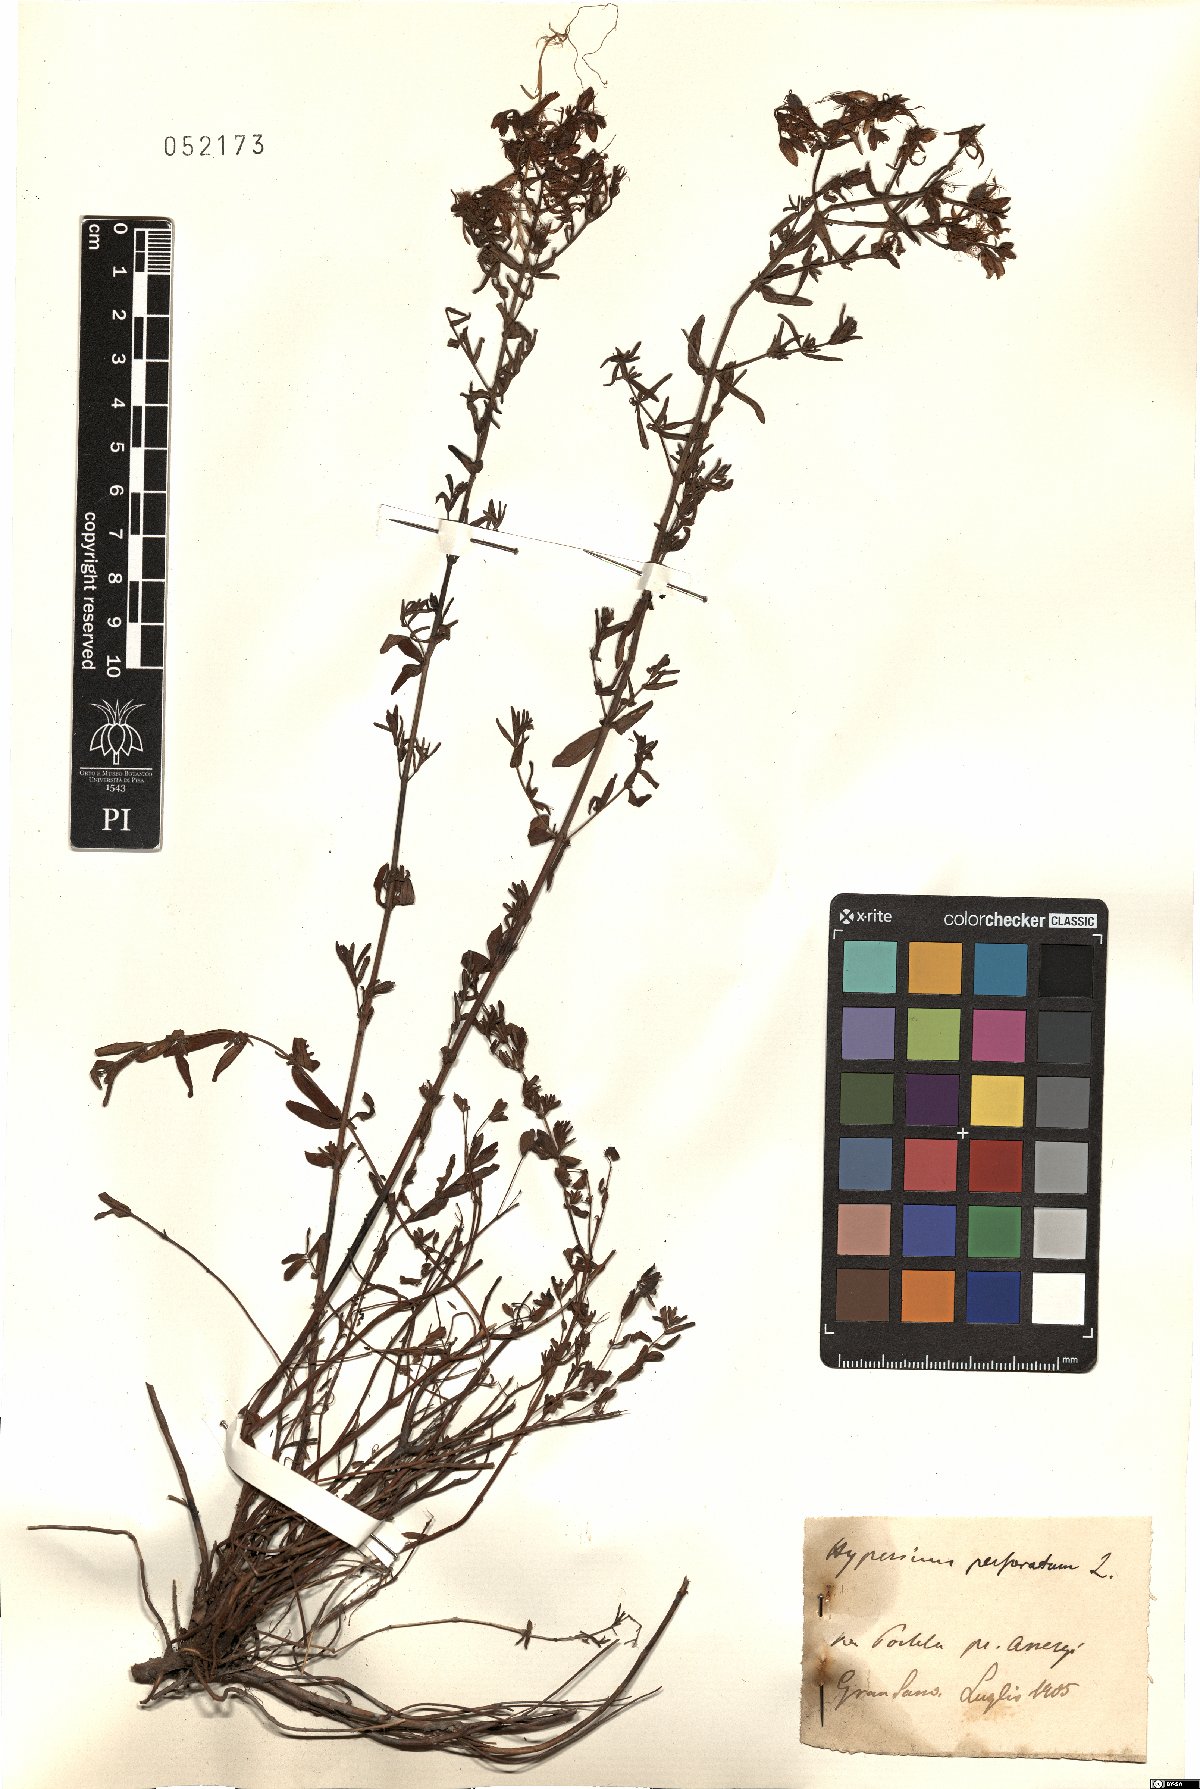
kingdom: Plantae
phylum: Tracheophyta
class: Magnoliopsida
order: Malpighiales
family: Hypericaceae
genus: Hypericum
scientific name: Hypericum perforatum
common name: Common st. johnswort
